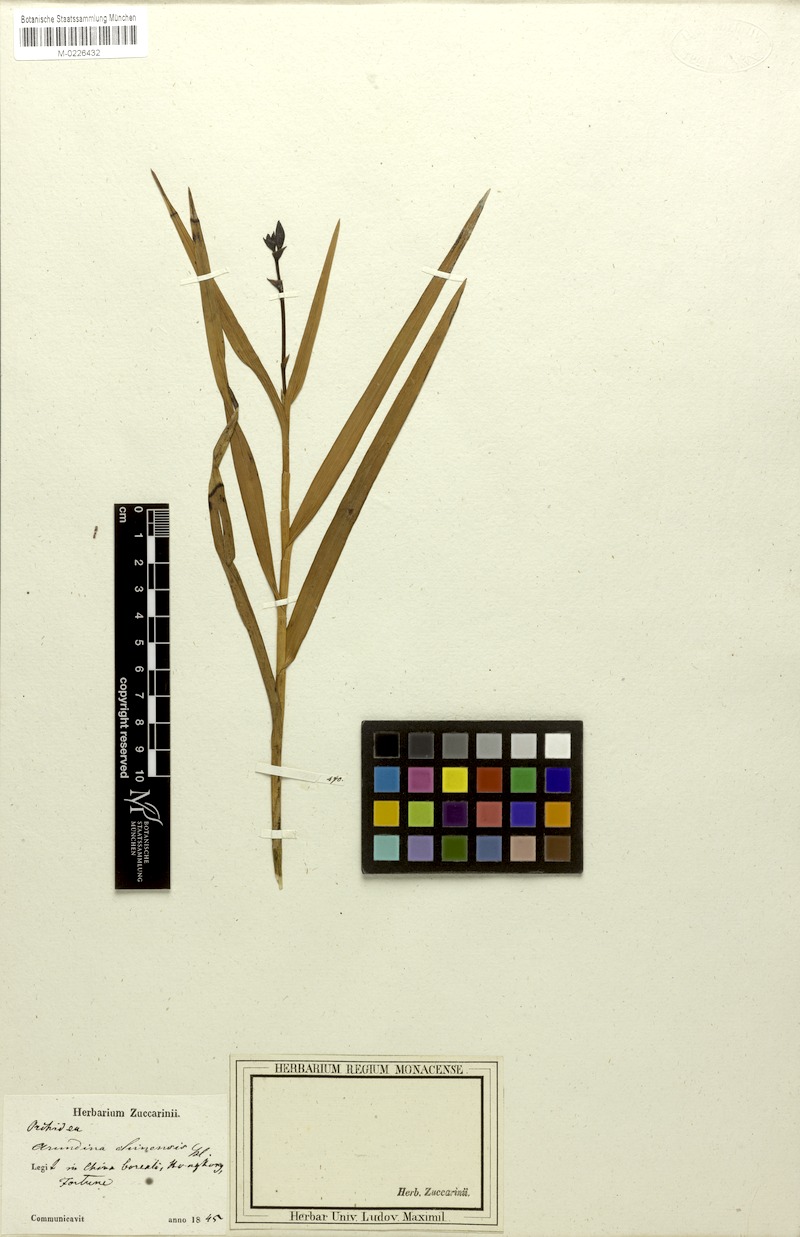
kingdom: Plantae
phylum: Tracheophyta
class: Liliopsida
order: Asparagales
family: Orchidaceae
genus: Arundina
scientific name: Arundina graminifolia
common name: Bamboo orchid
